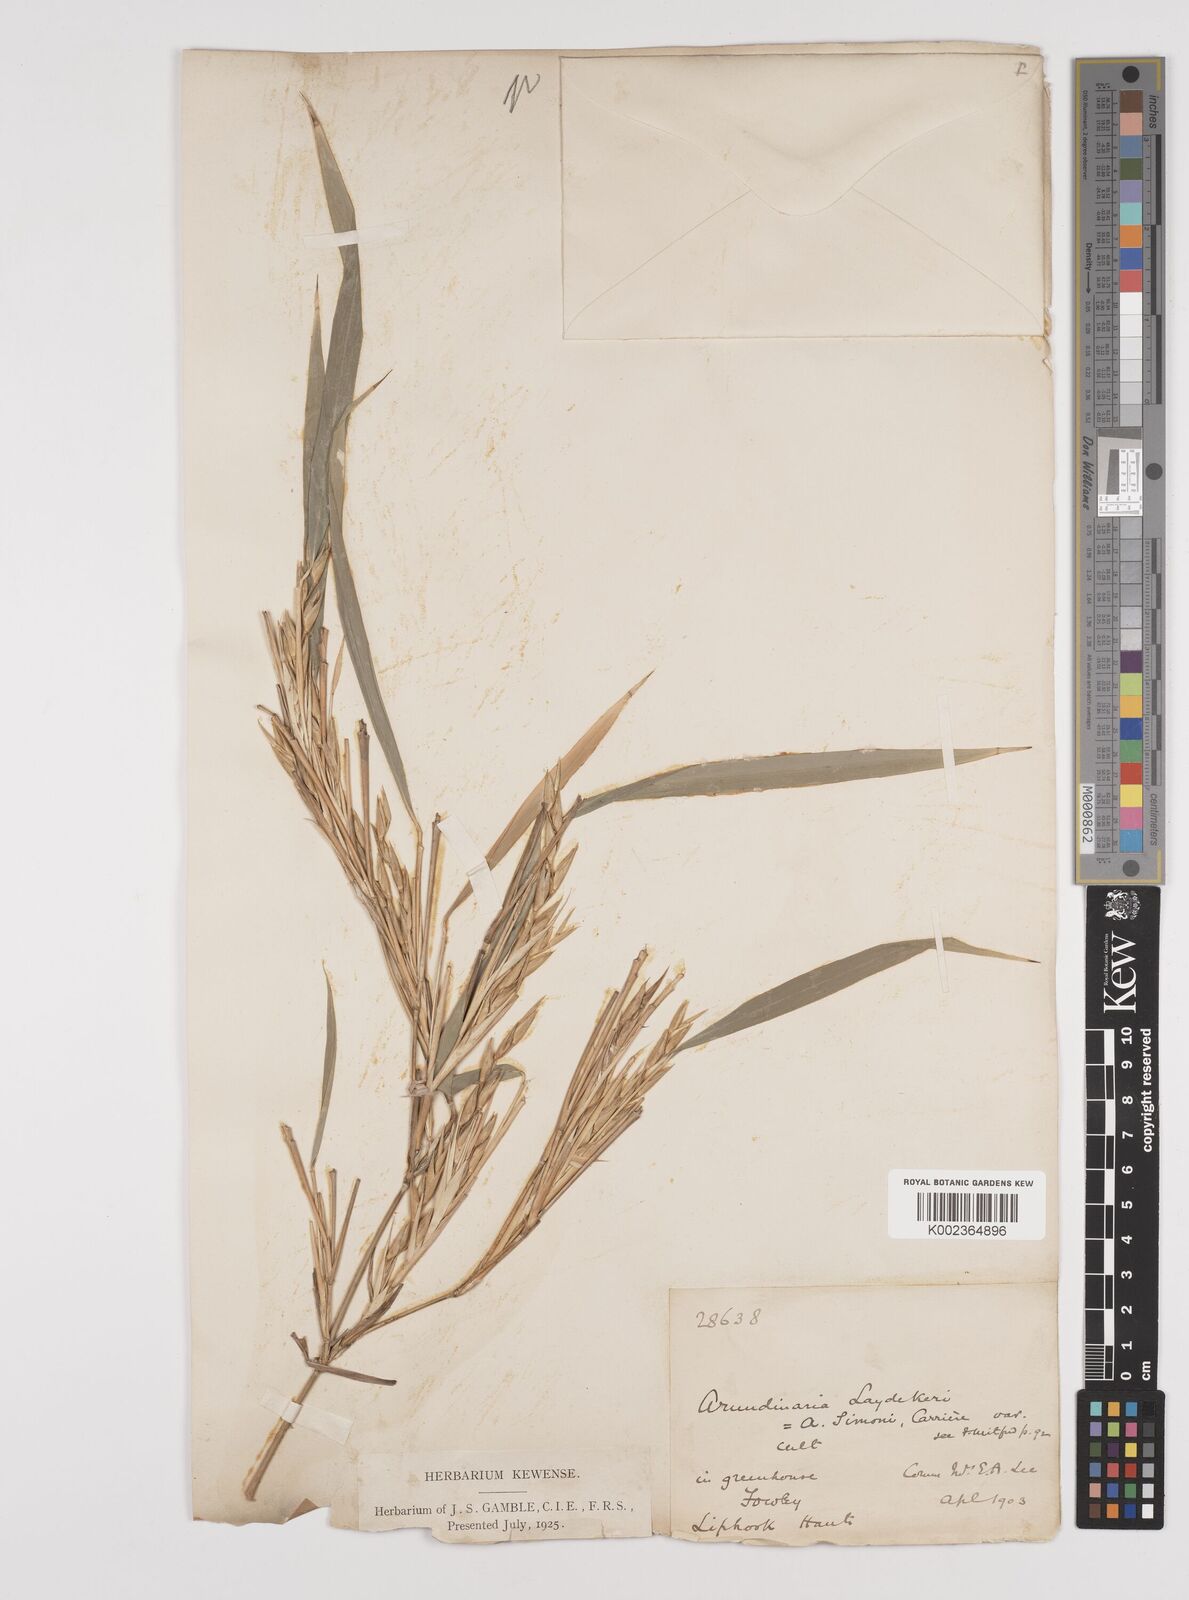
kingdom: Plantae
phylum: Tracheophyta
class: Liliopsida
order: Poales
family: Poaceae
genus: Pleioblastus
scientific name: Pleioblastus argenteostriatus
